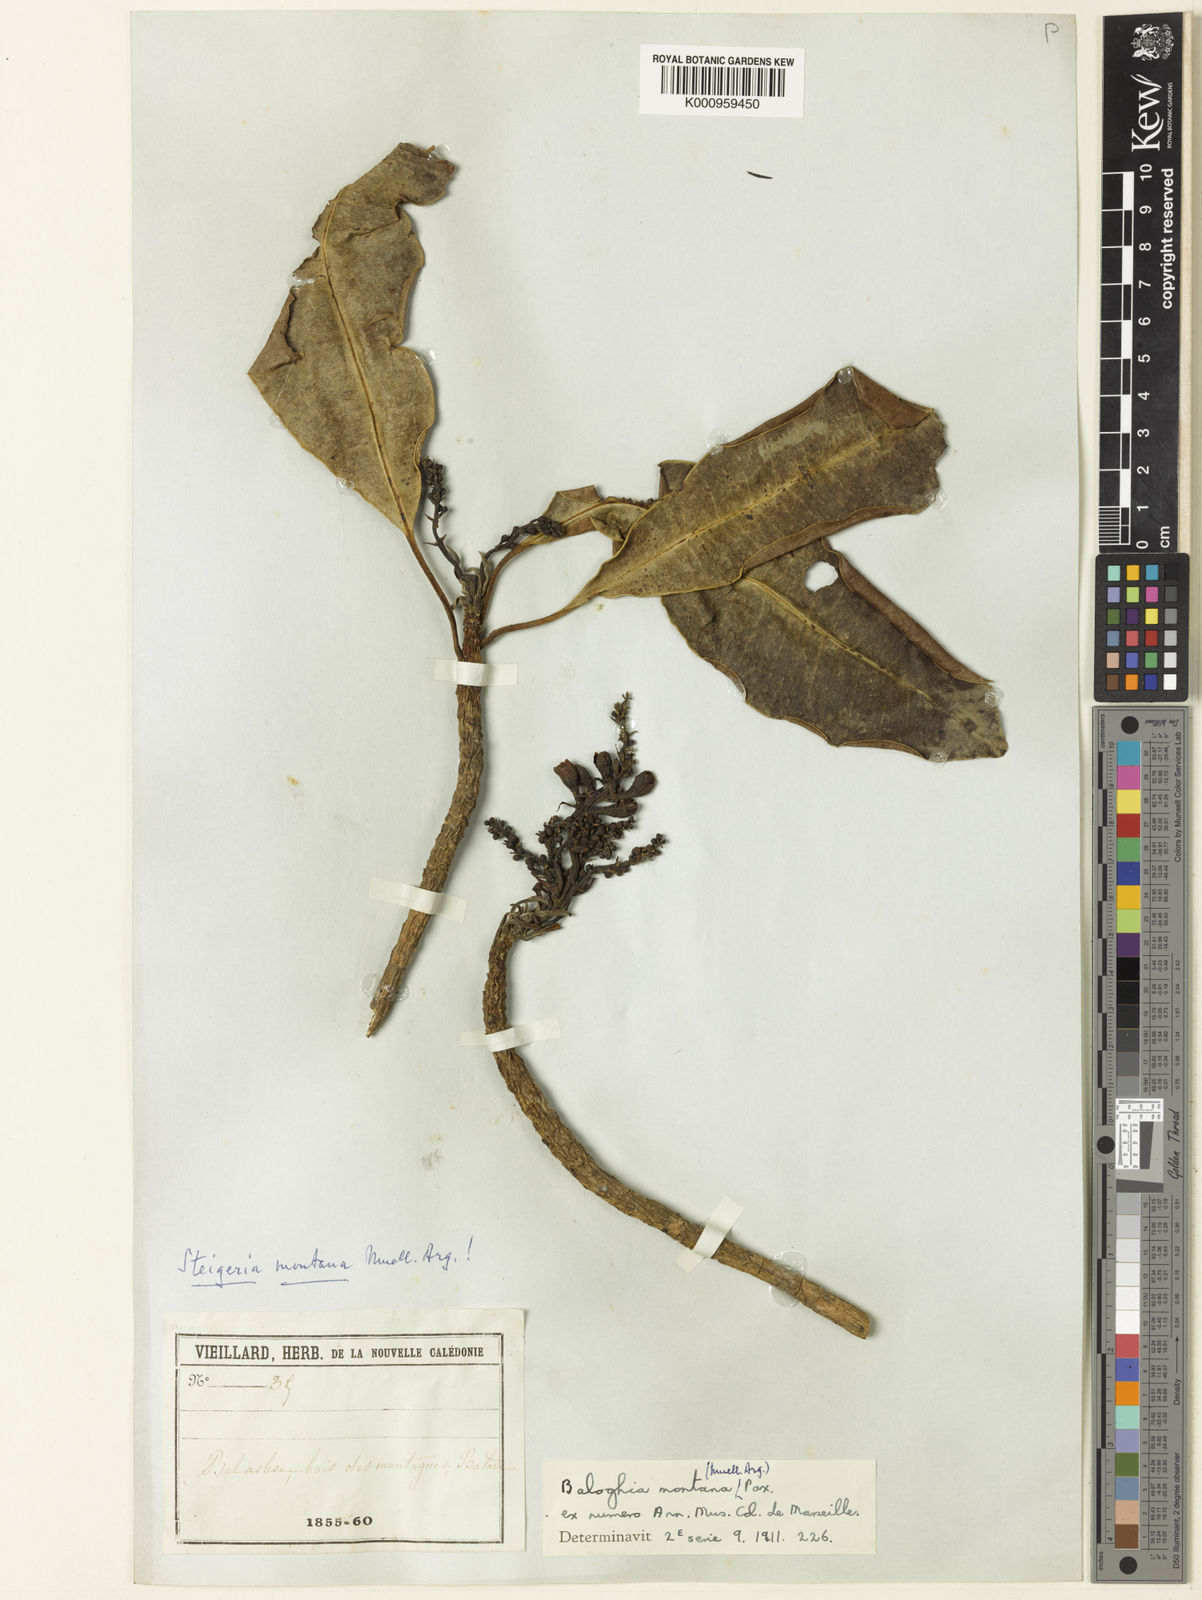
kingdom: Plantae
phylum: Tracheophyta
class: Magnoliopsida
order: Malpighiales
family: Euphorbiaceae
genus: Baloghia
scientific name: Baloghia
